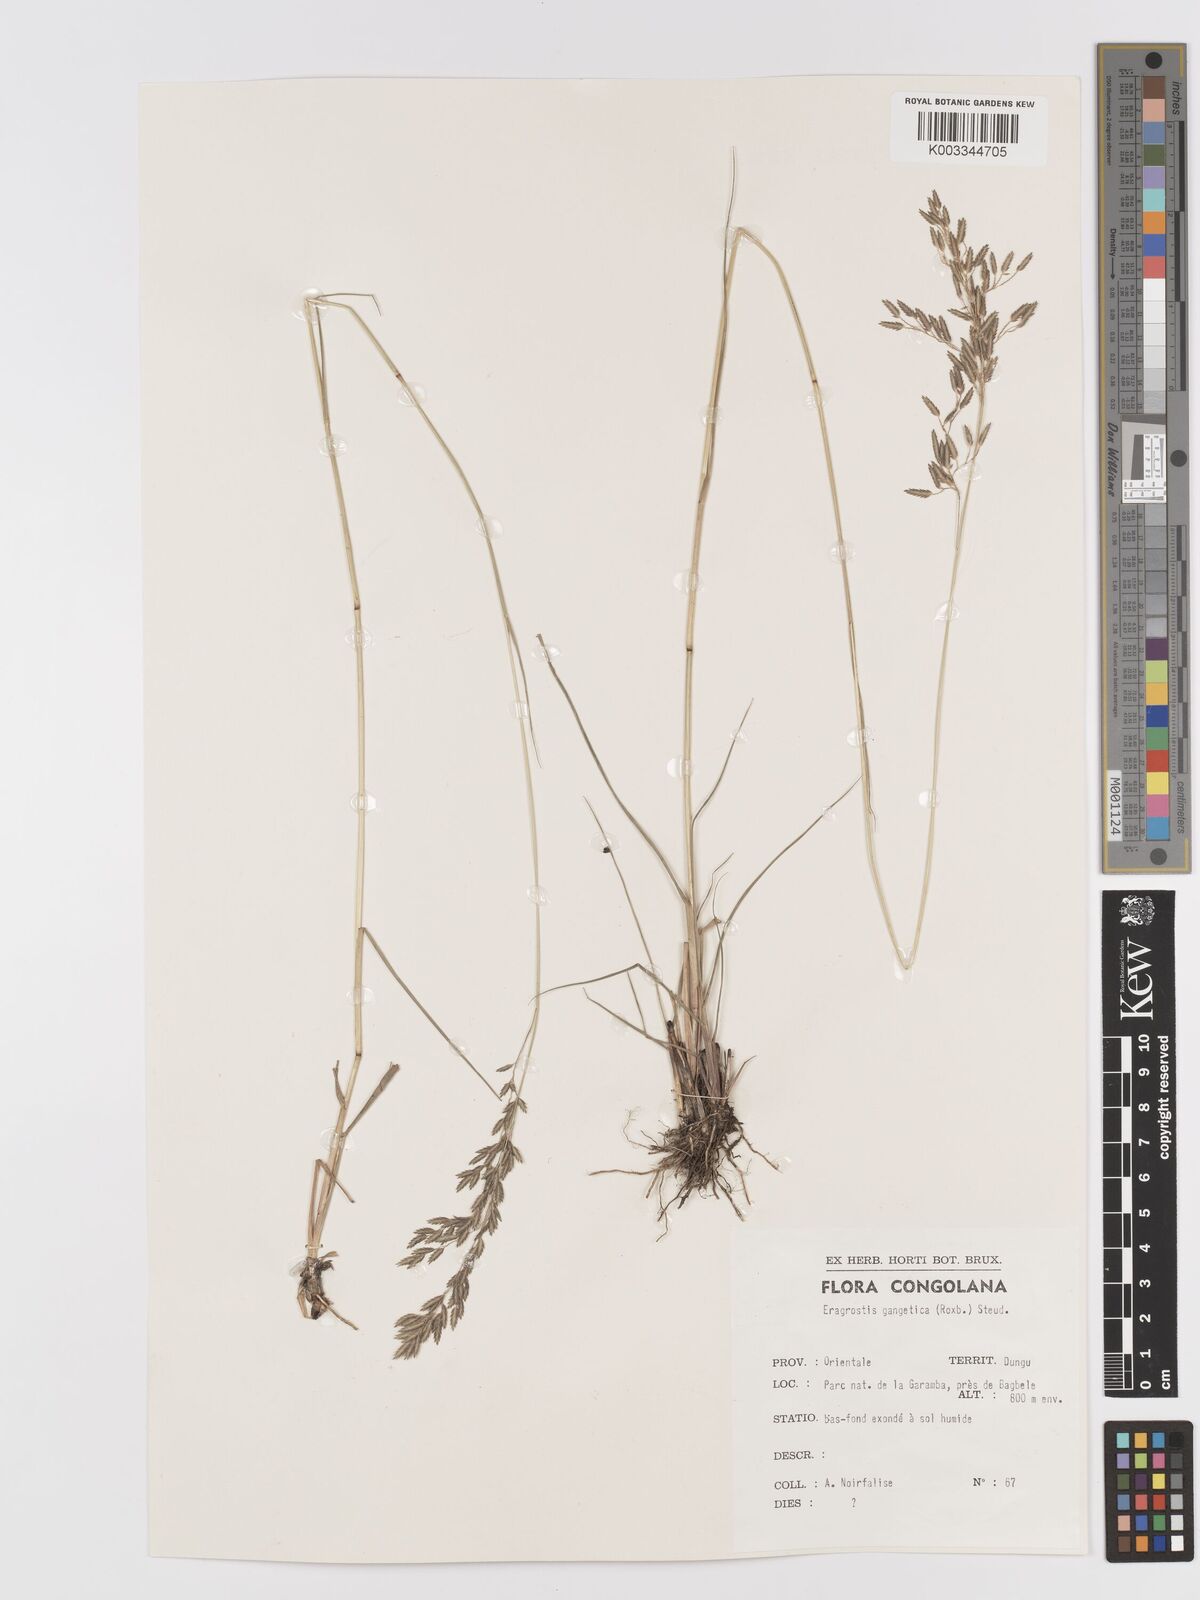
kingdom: Plantae
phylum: Tracheophyta
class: Liliopsida
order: Poales
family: Poaceae
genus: Eragrostis
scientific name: Eragrostis atrovirens
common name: Thalia lovegrass
